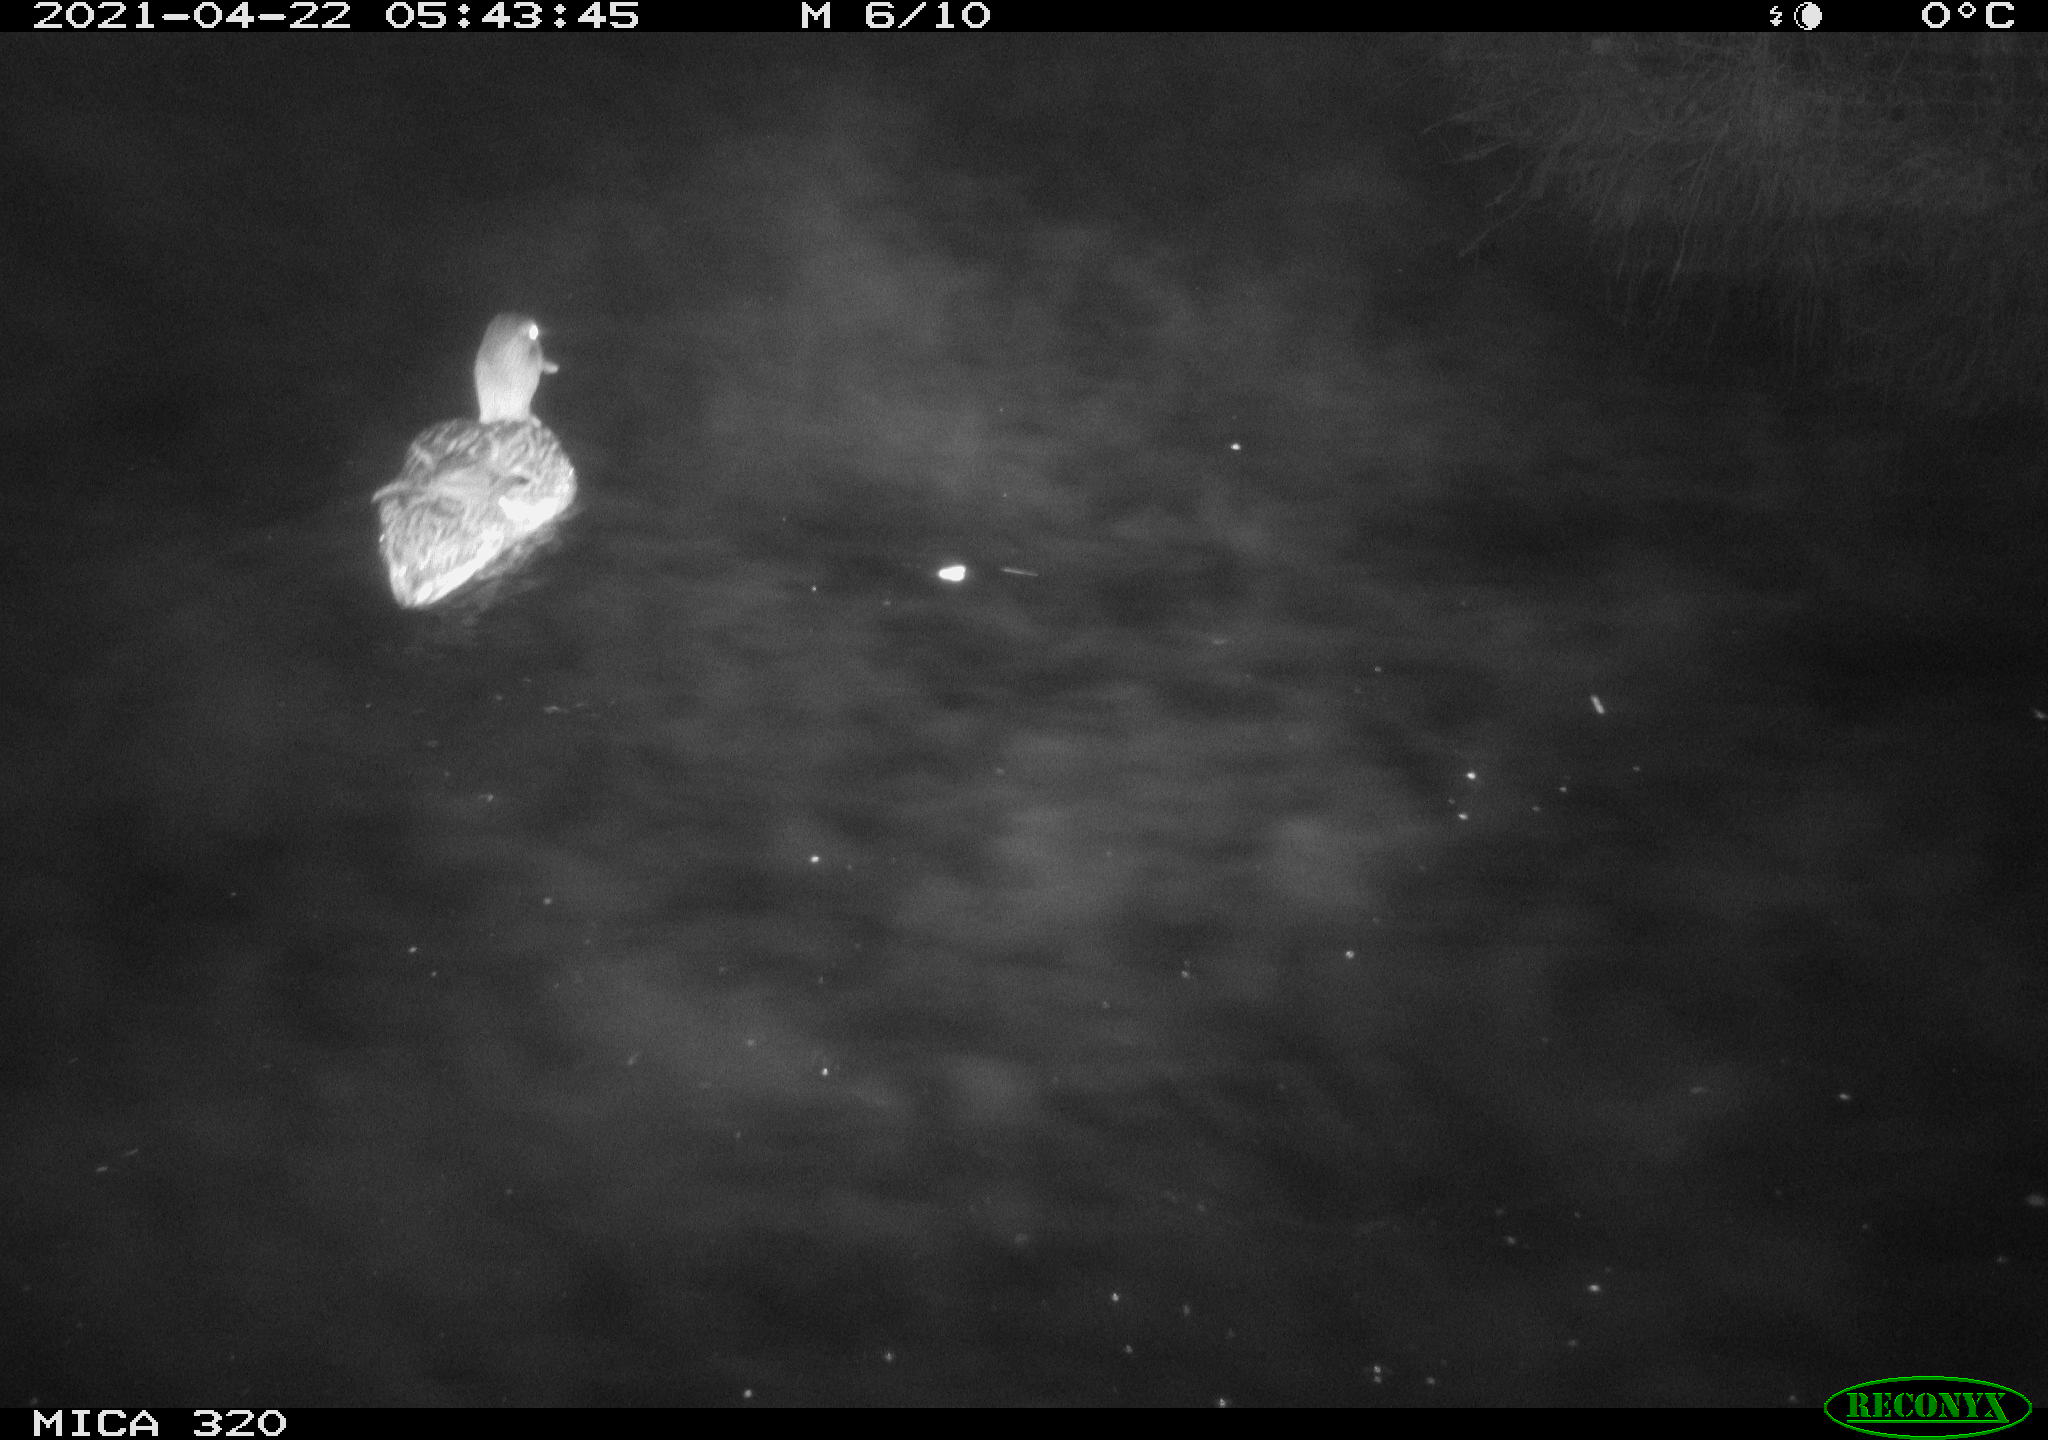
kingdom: Animalia
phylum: Chordata
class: Aves
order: Anseriformes
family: Anatidae
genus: Anas
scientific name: Anas platyrhynchos
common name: Mallard
